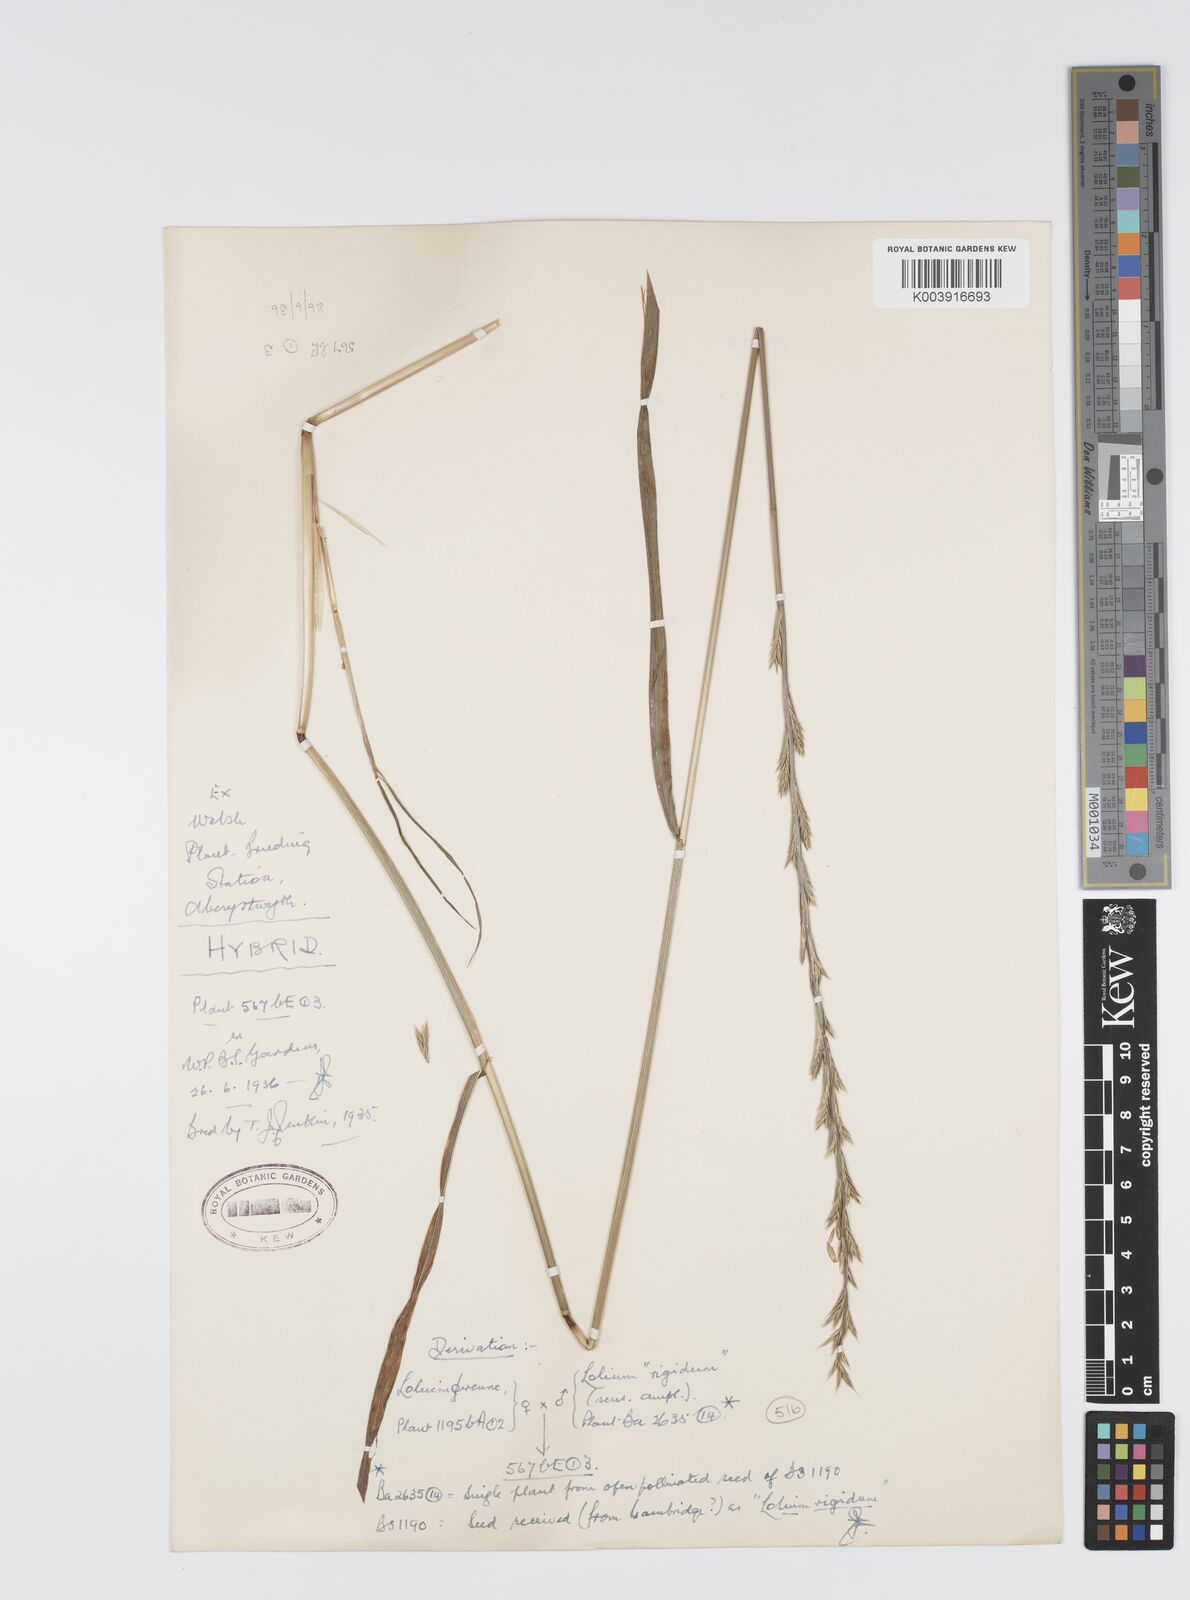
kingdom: Plantae
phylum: Tracheophyta
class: Liliopsida
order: Poales
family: Poaceae
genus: Lolium
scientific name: Lolium perenne
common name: Perennial ryegrass
